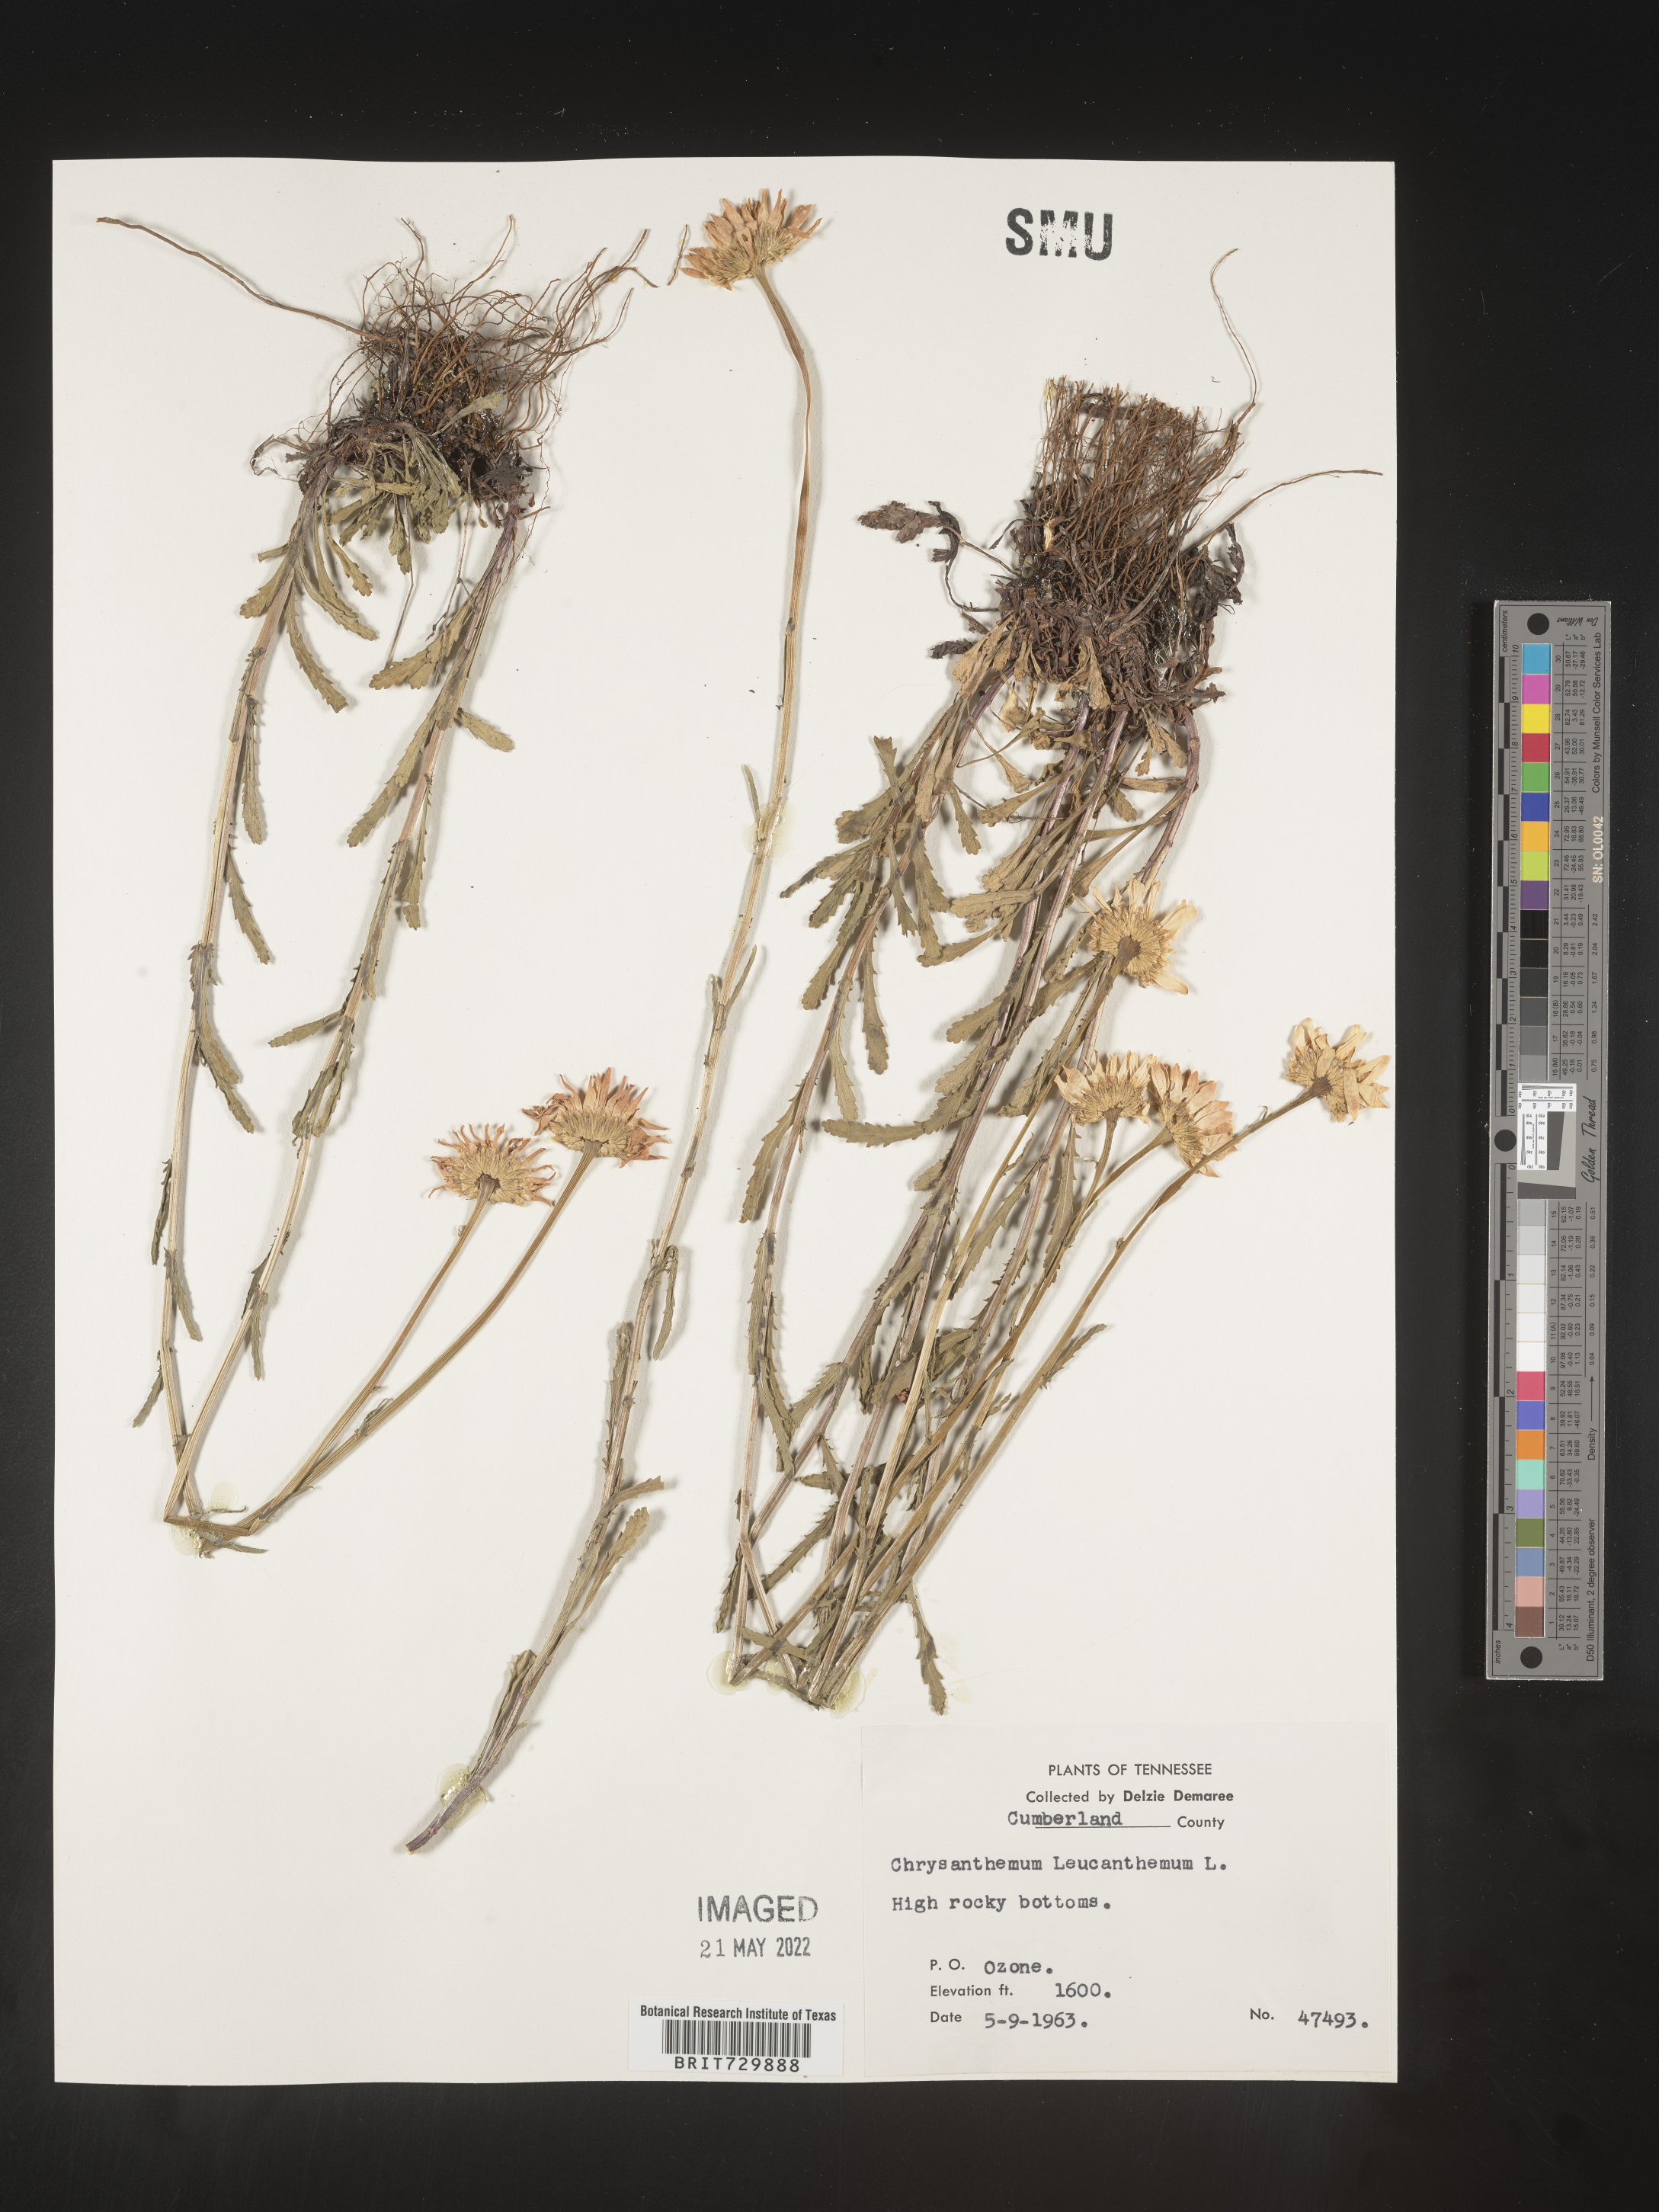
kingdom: Plantae
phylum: Tracheophyta
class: Magnoliopsida
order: Asterales
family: Asteraceae
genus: Leucanthemum
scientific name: Leucanthemum vulgare
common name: Oxeye daisy
